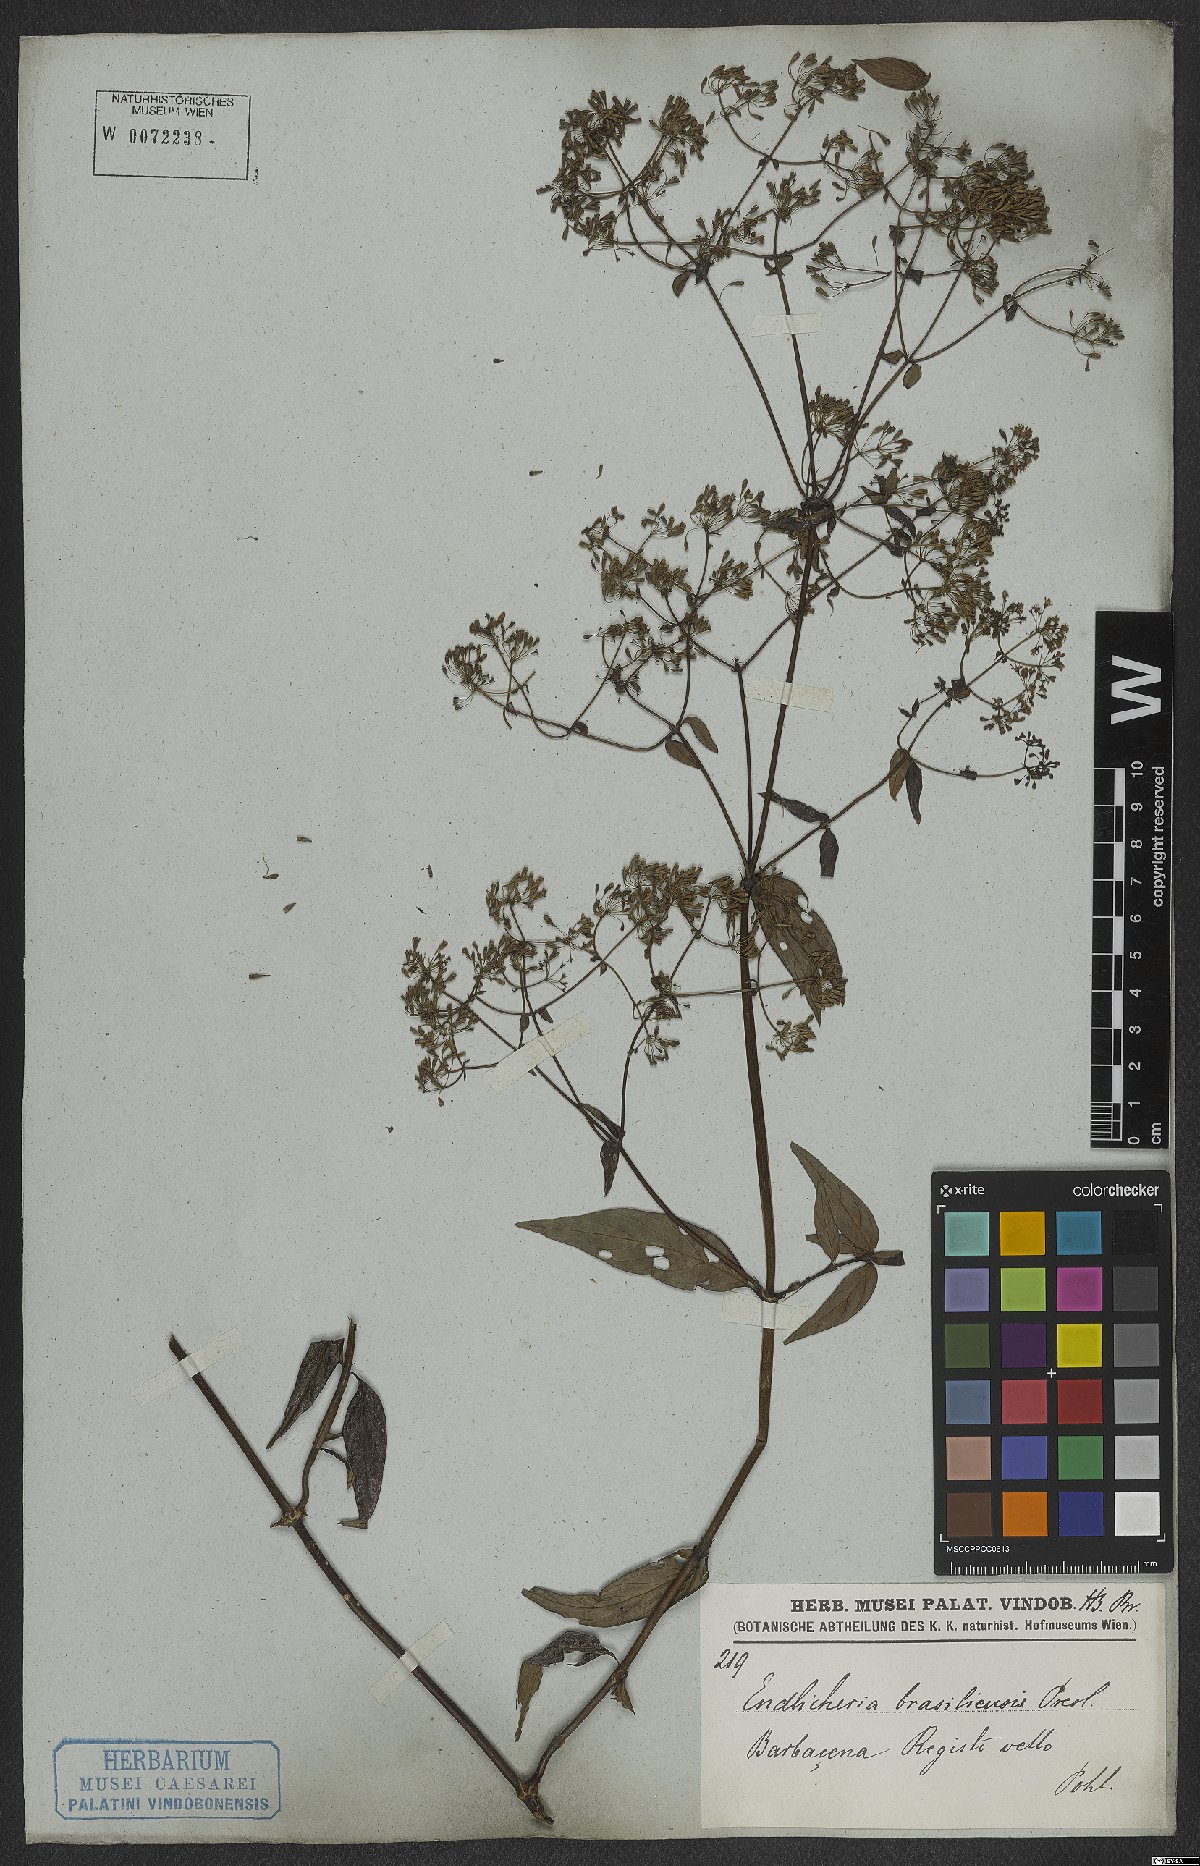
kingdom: Plantae
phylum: Tracheophyta
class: Magnoliopsida
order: Gentianales
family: Rubiaceae
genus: Emmeorhiza
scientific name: Emmeorhiza umbellata
